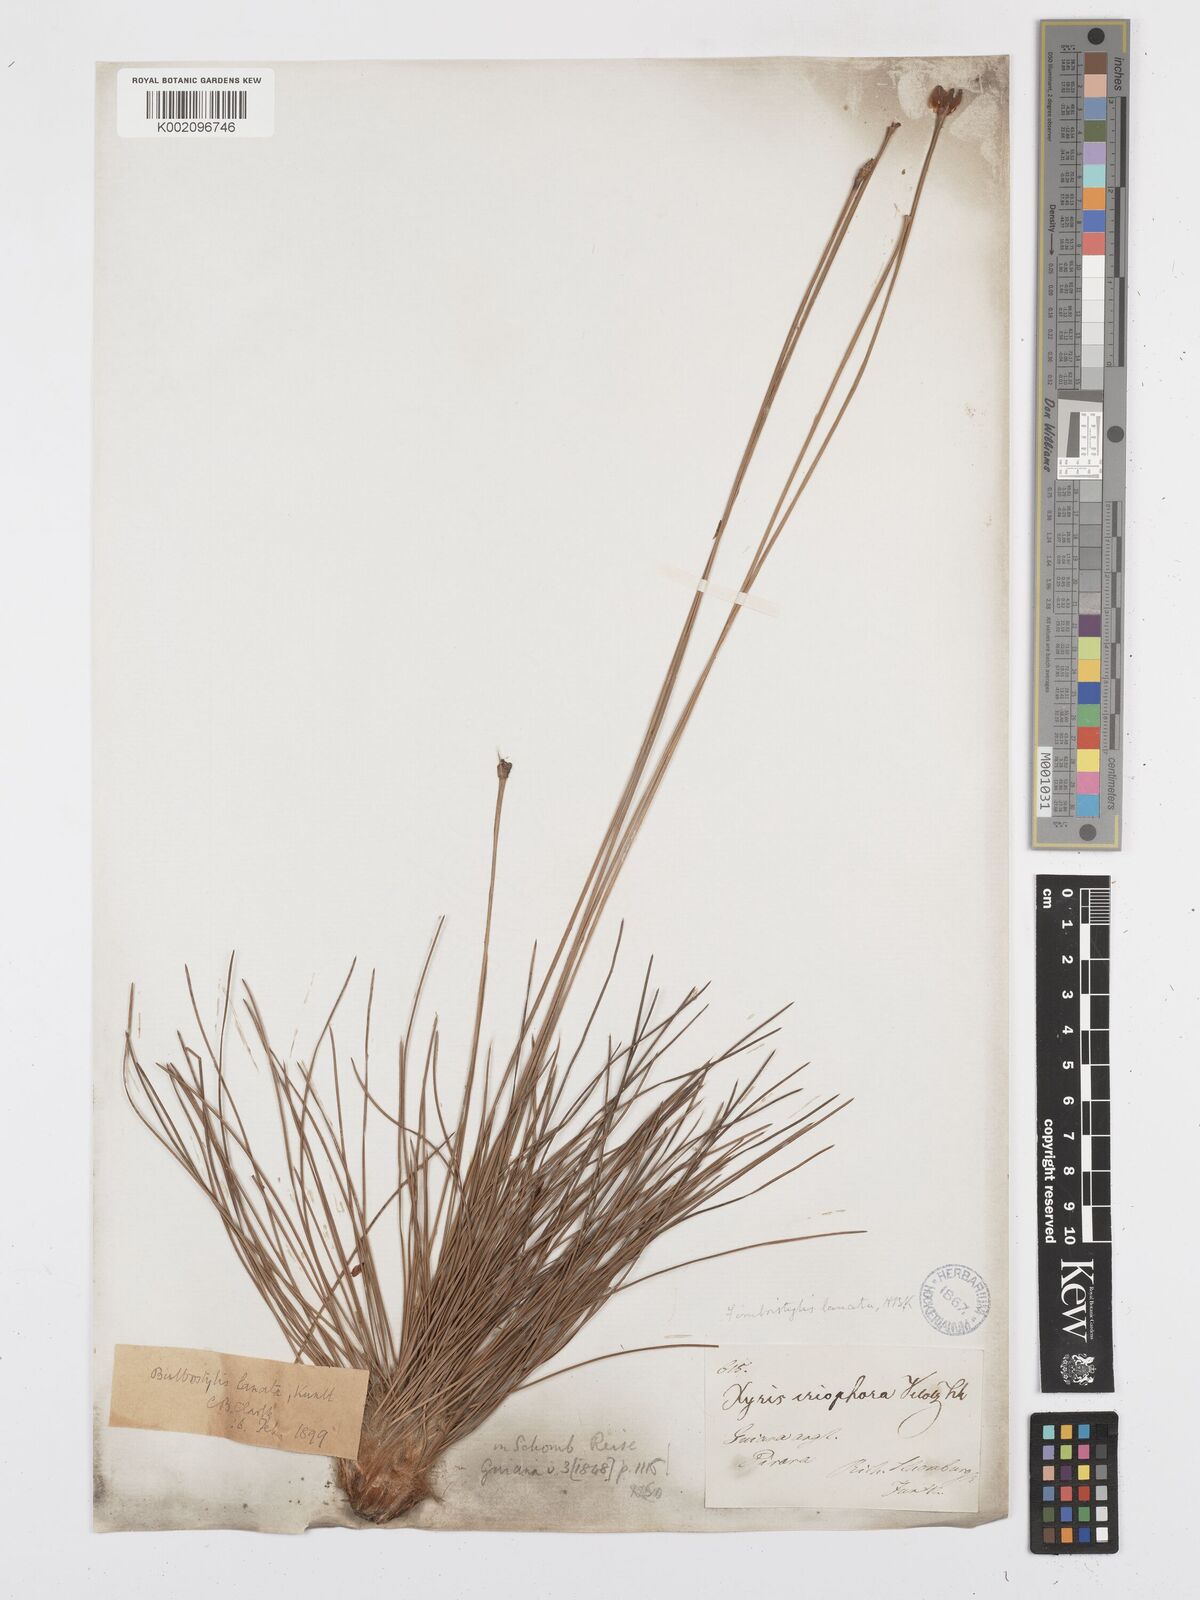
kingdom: Plantae
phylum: Tracheophyta
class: Liliopsida
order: Poales
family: Cyperaceae
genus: Bulbostylis
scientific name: Bulbostylis
